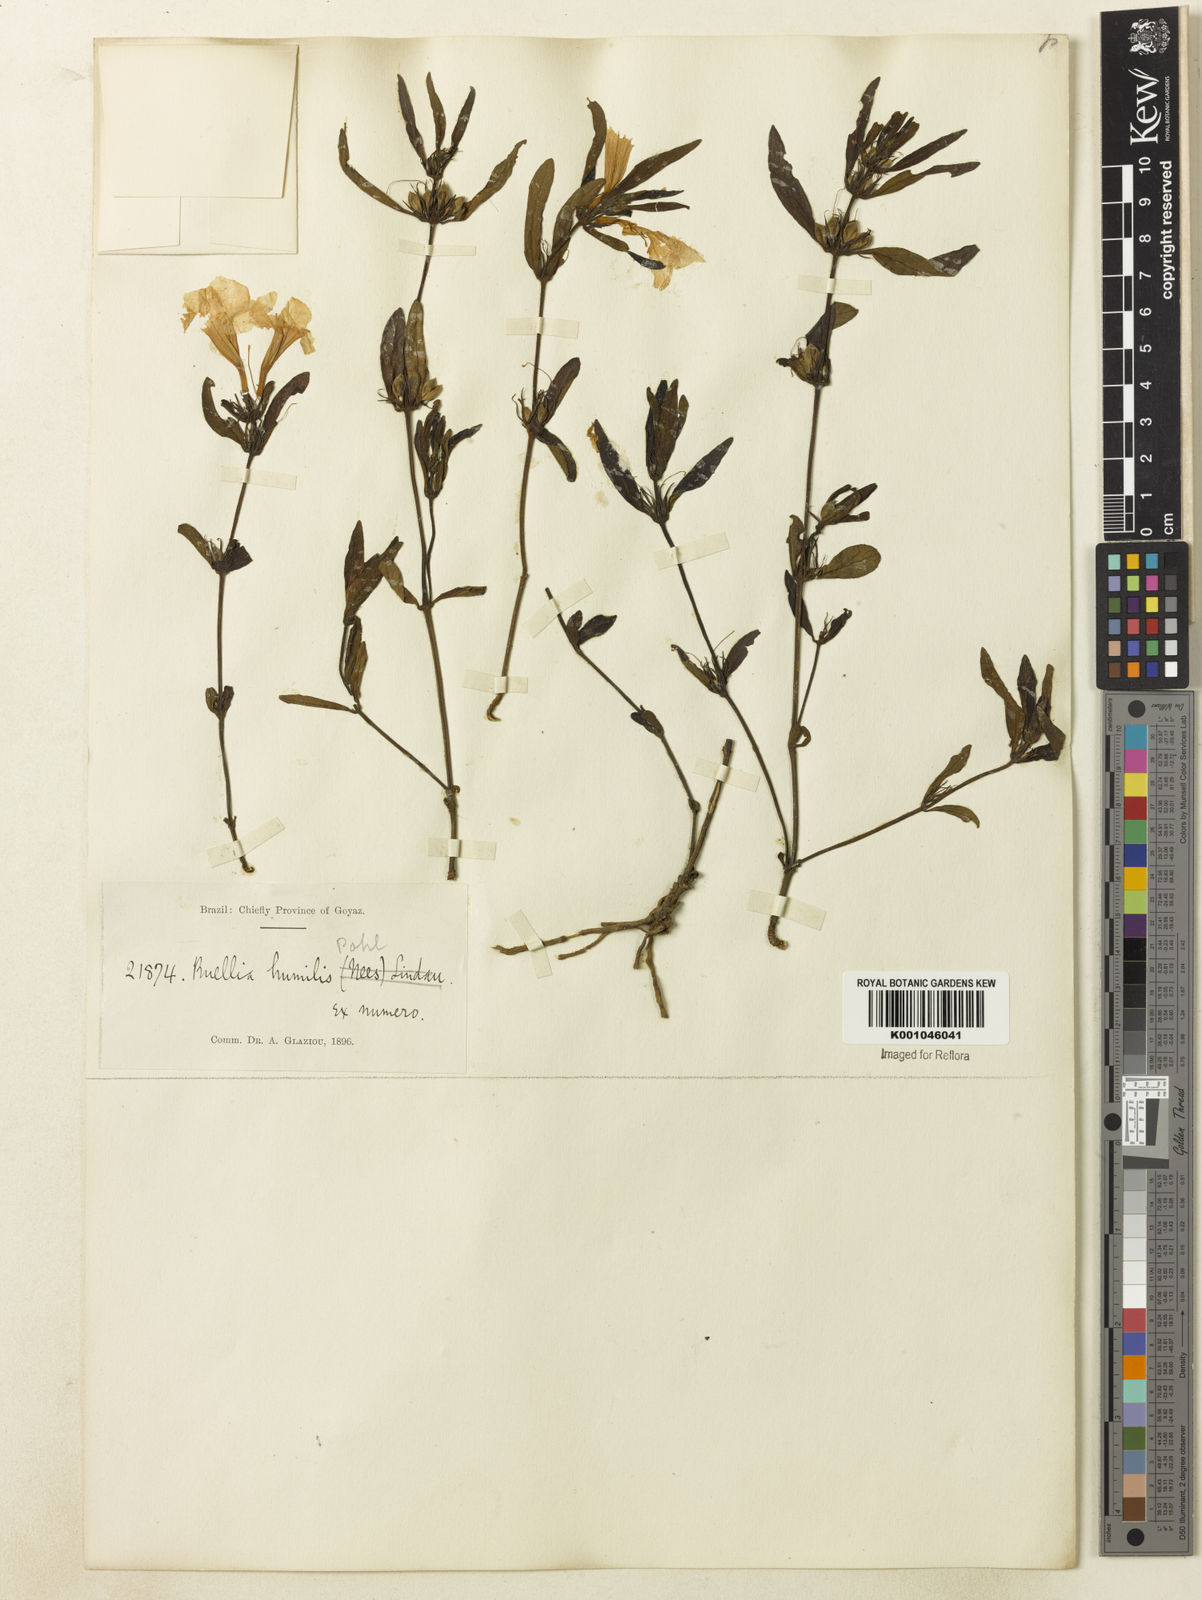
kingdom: Plantae
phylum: Tracheophyta
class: Magnoliopsida
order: Lamiales
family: Acanthaceae
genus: Ruellia
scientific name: Ruellia geminiflora
